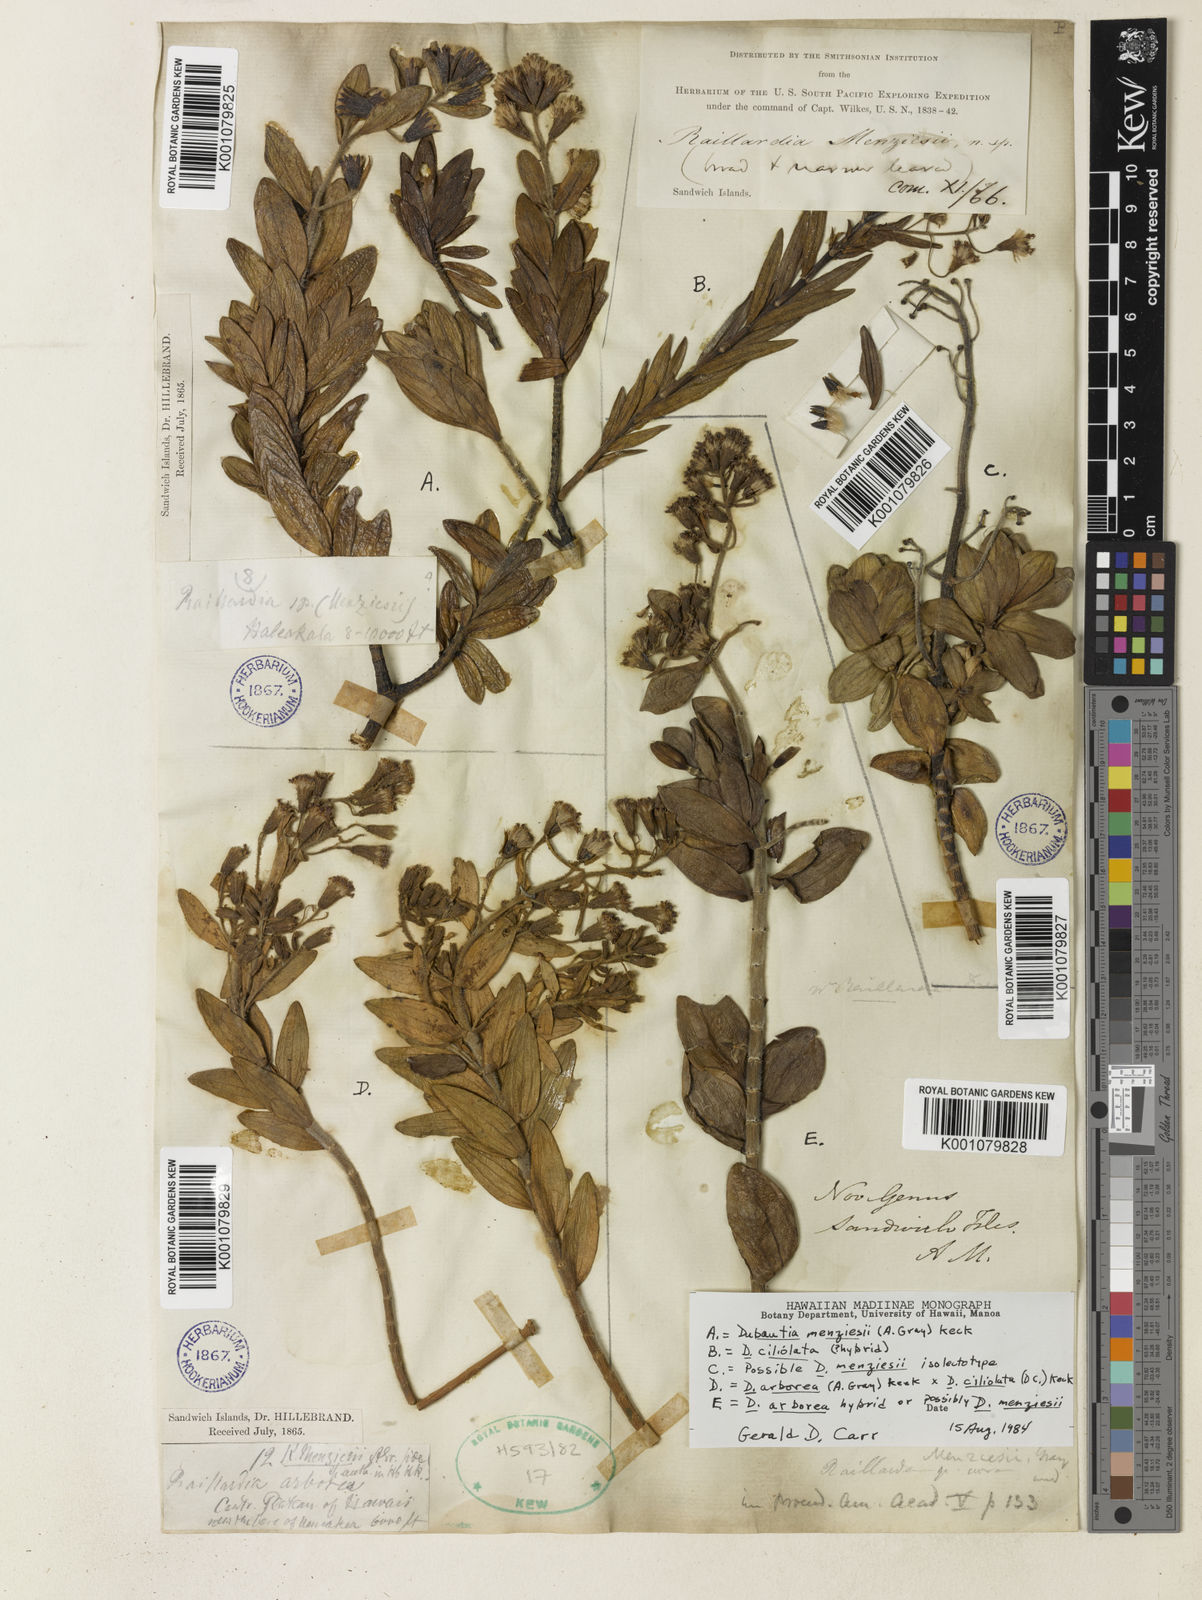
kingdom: Plantae
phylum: Tracheophyta
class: Magnoliopsida
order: Asterales
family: Asteraceae
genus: Dubautia
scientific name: Dubautia menziesii
